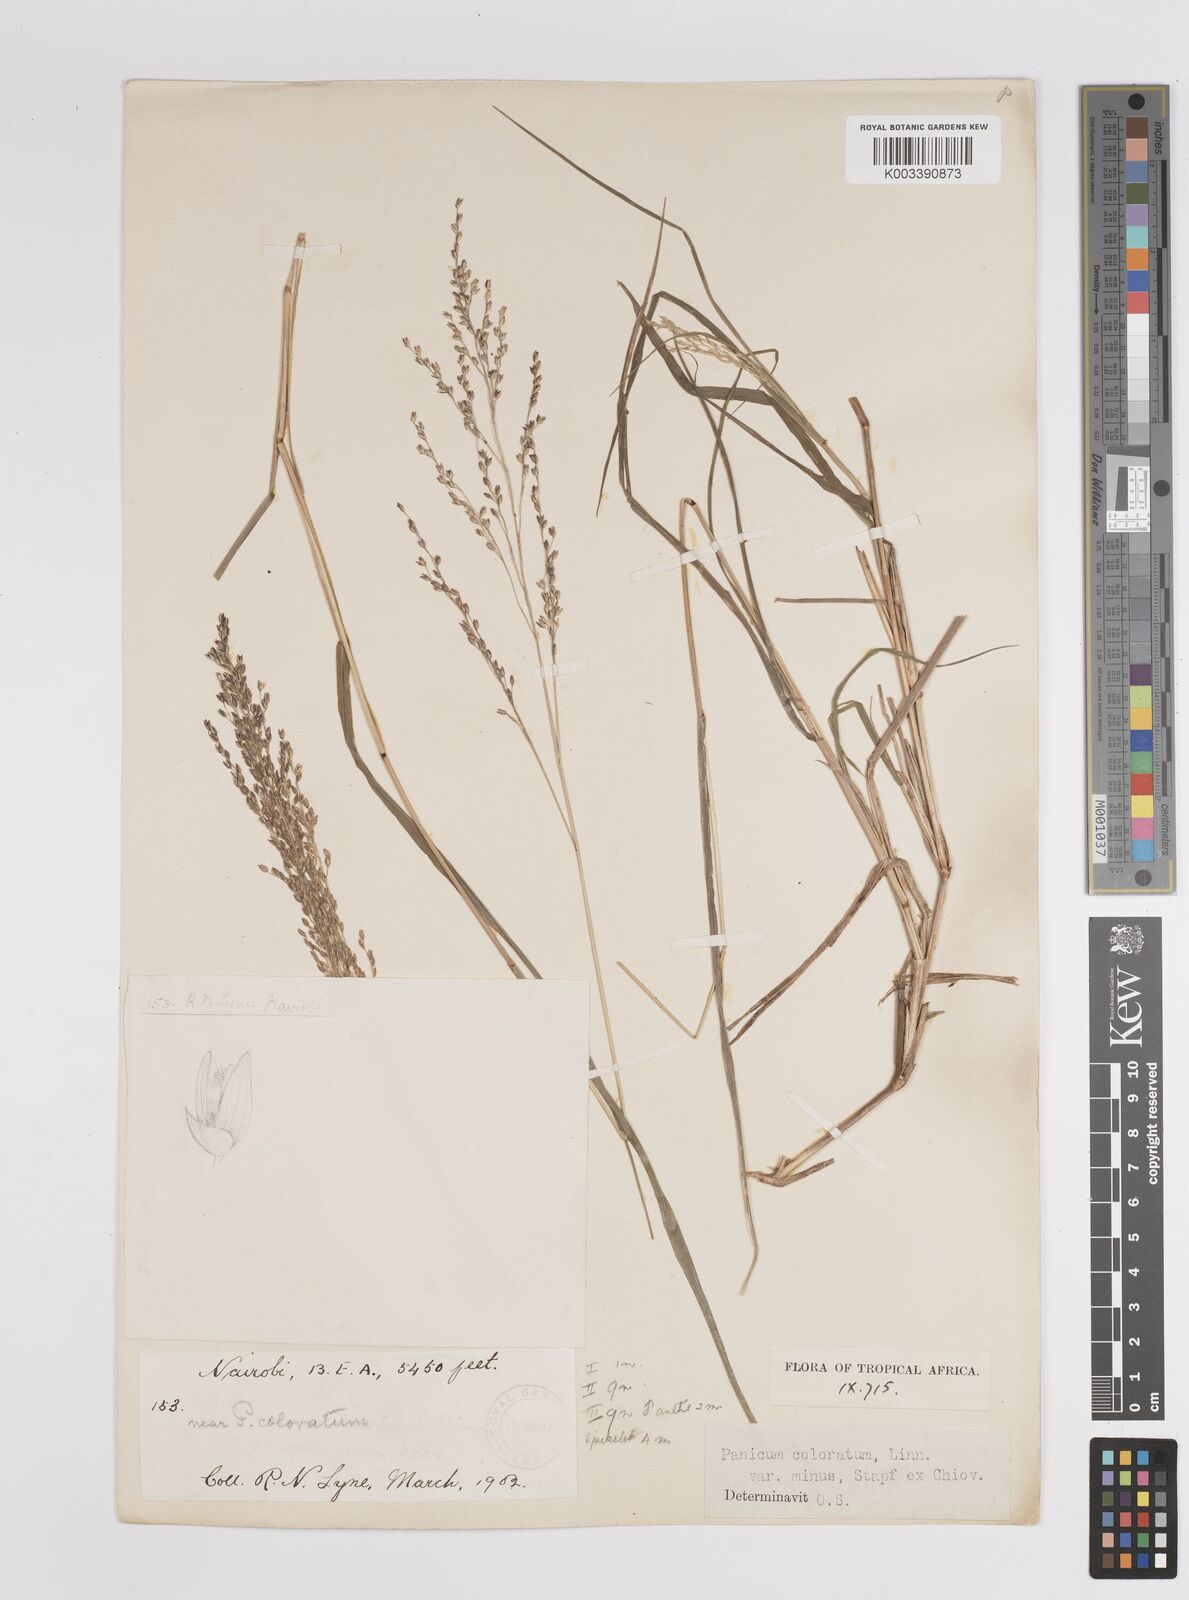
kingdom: Plantae
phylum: Tracheophyta
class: Liliopsida
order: Poales
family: Poaceae
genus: Panicum
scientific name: Panicum coloratum
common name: Kleingrass
